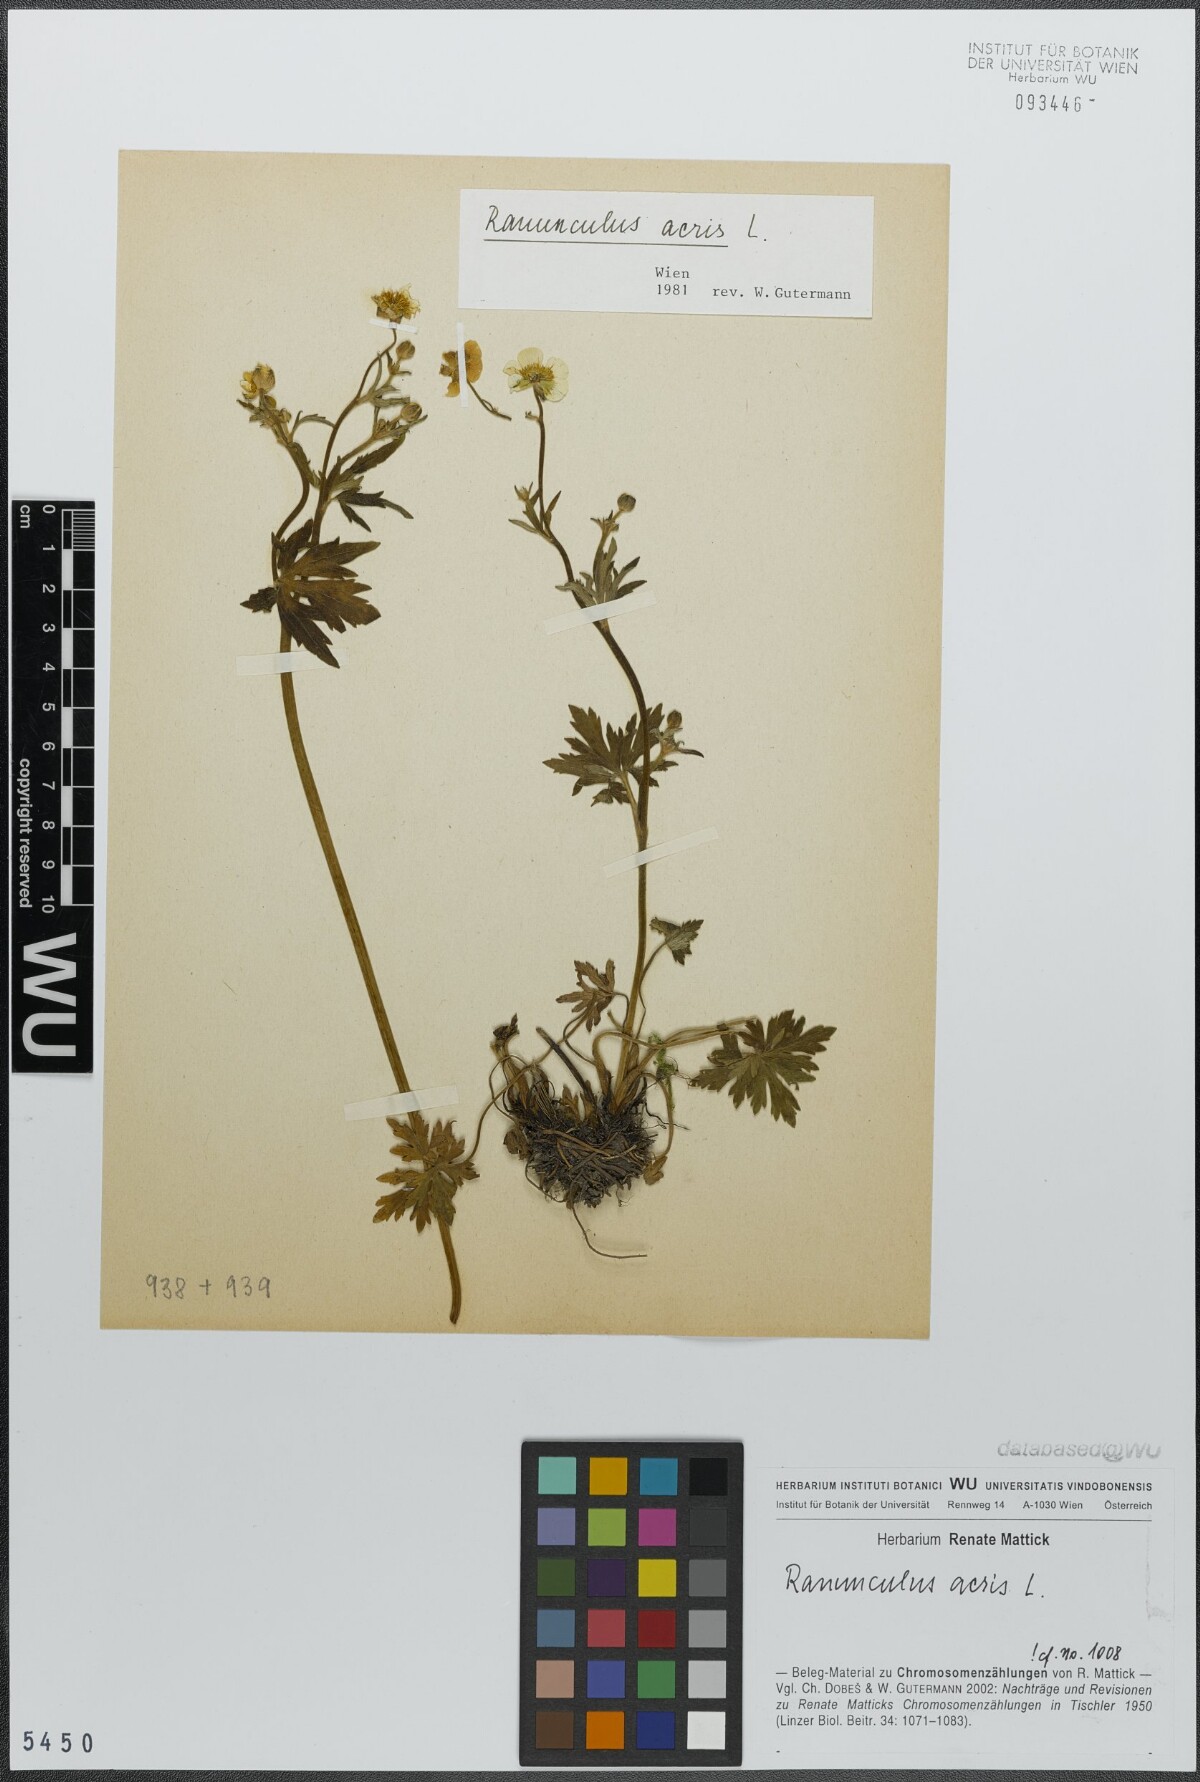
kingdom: Plantae
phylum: Tracheophyta
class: Magnoliopsida
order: Ranunculales
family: Ranunculaceae
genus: Ranunculus
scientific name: Ranunculus acris
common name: Meadow buttercup
